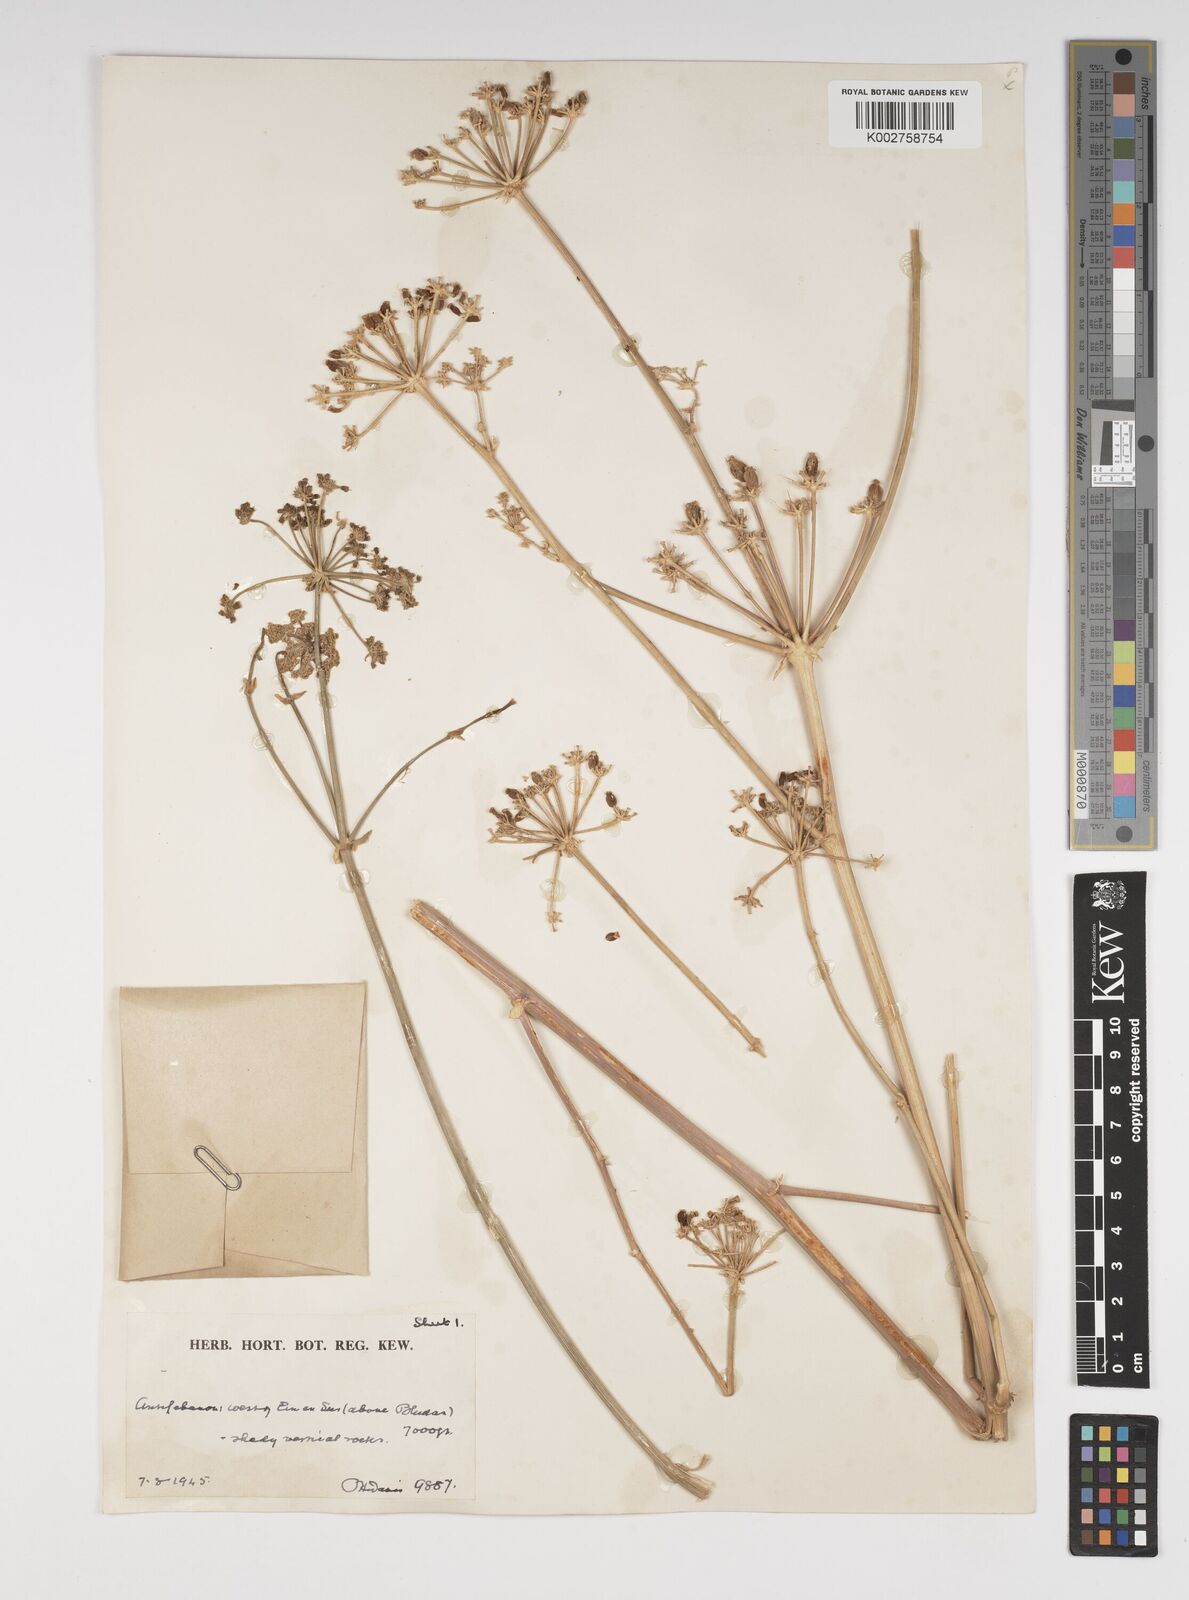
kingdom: Plantae
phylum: Tracheophyta
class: Magnoliopsida
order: Apiales
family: Apiaceae
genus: Cachrys
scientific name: Cachrys
